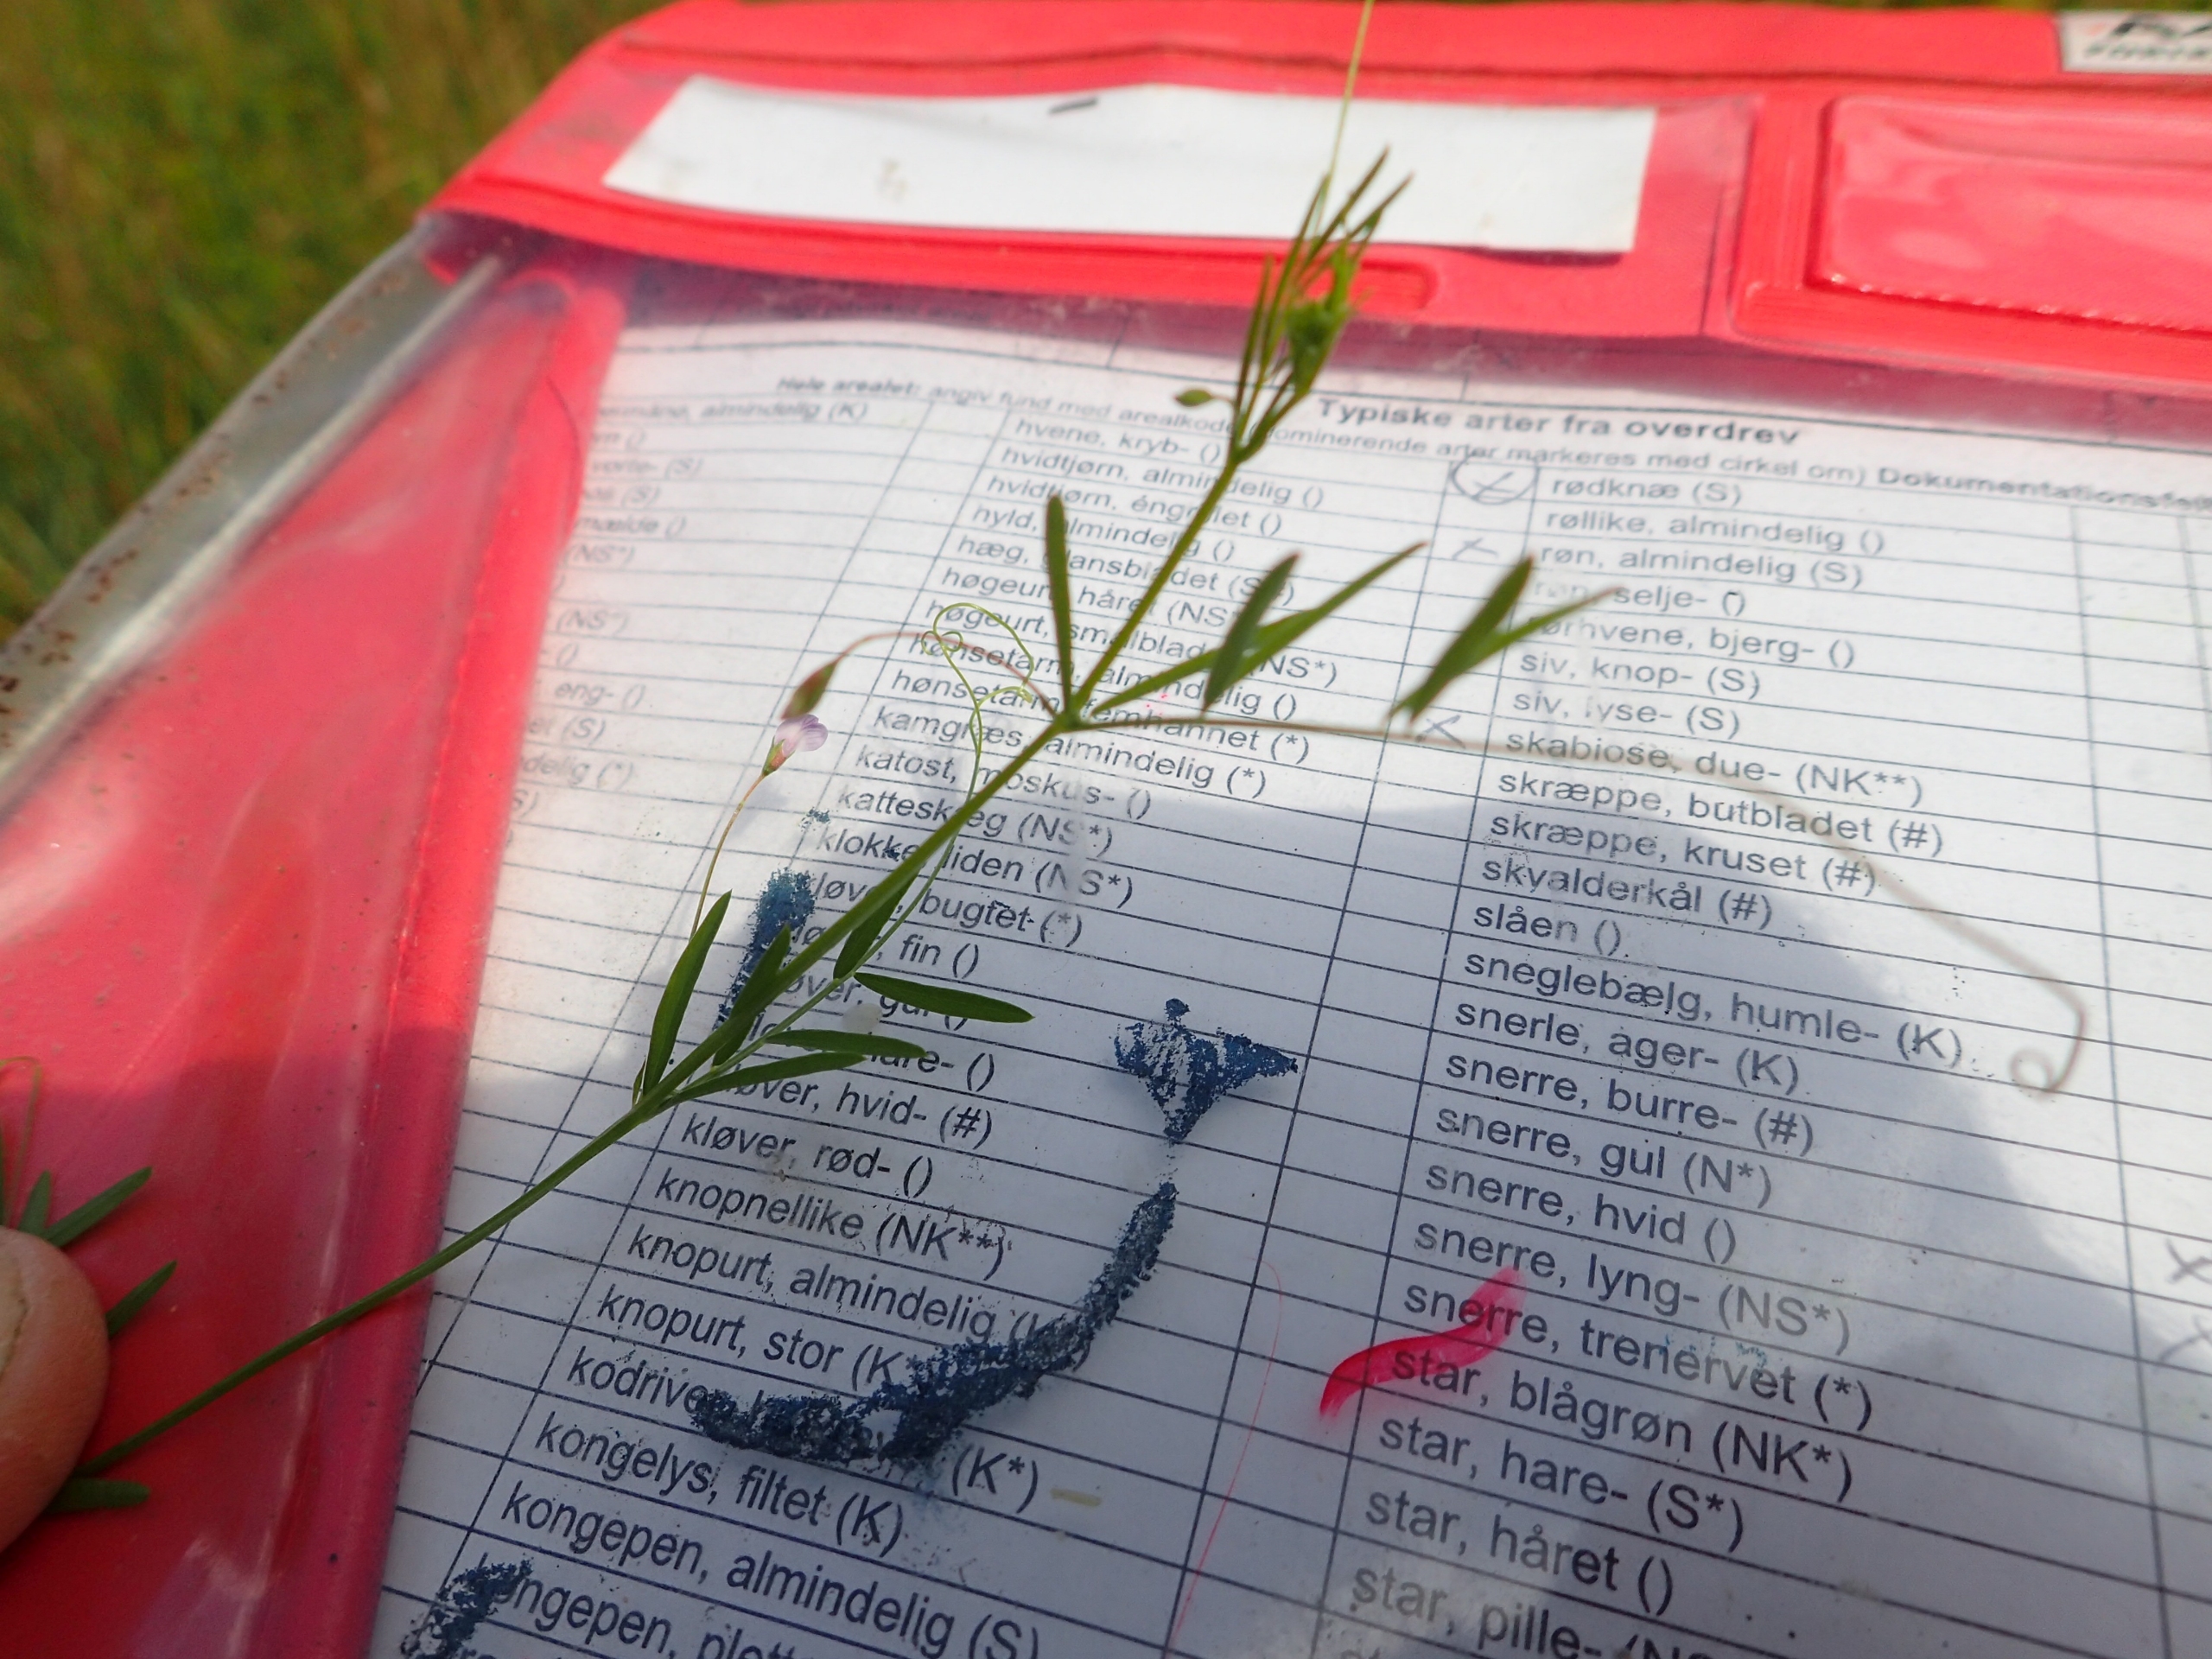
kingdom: Plantae
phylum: Tracheophyta
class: Magnoliopsida
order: Fabales
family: Fabaceae
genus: Vicia
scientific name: Vicia tetrasperma
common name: Tadder-vikke
